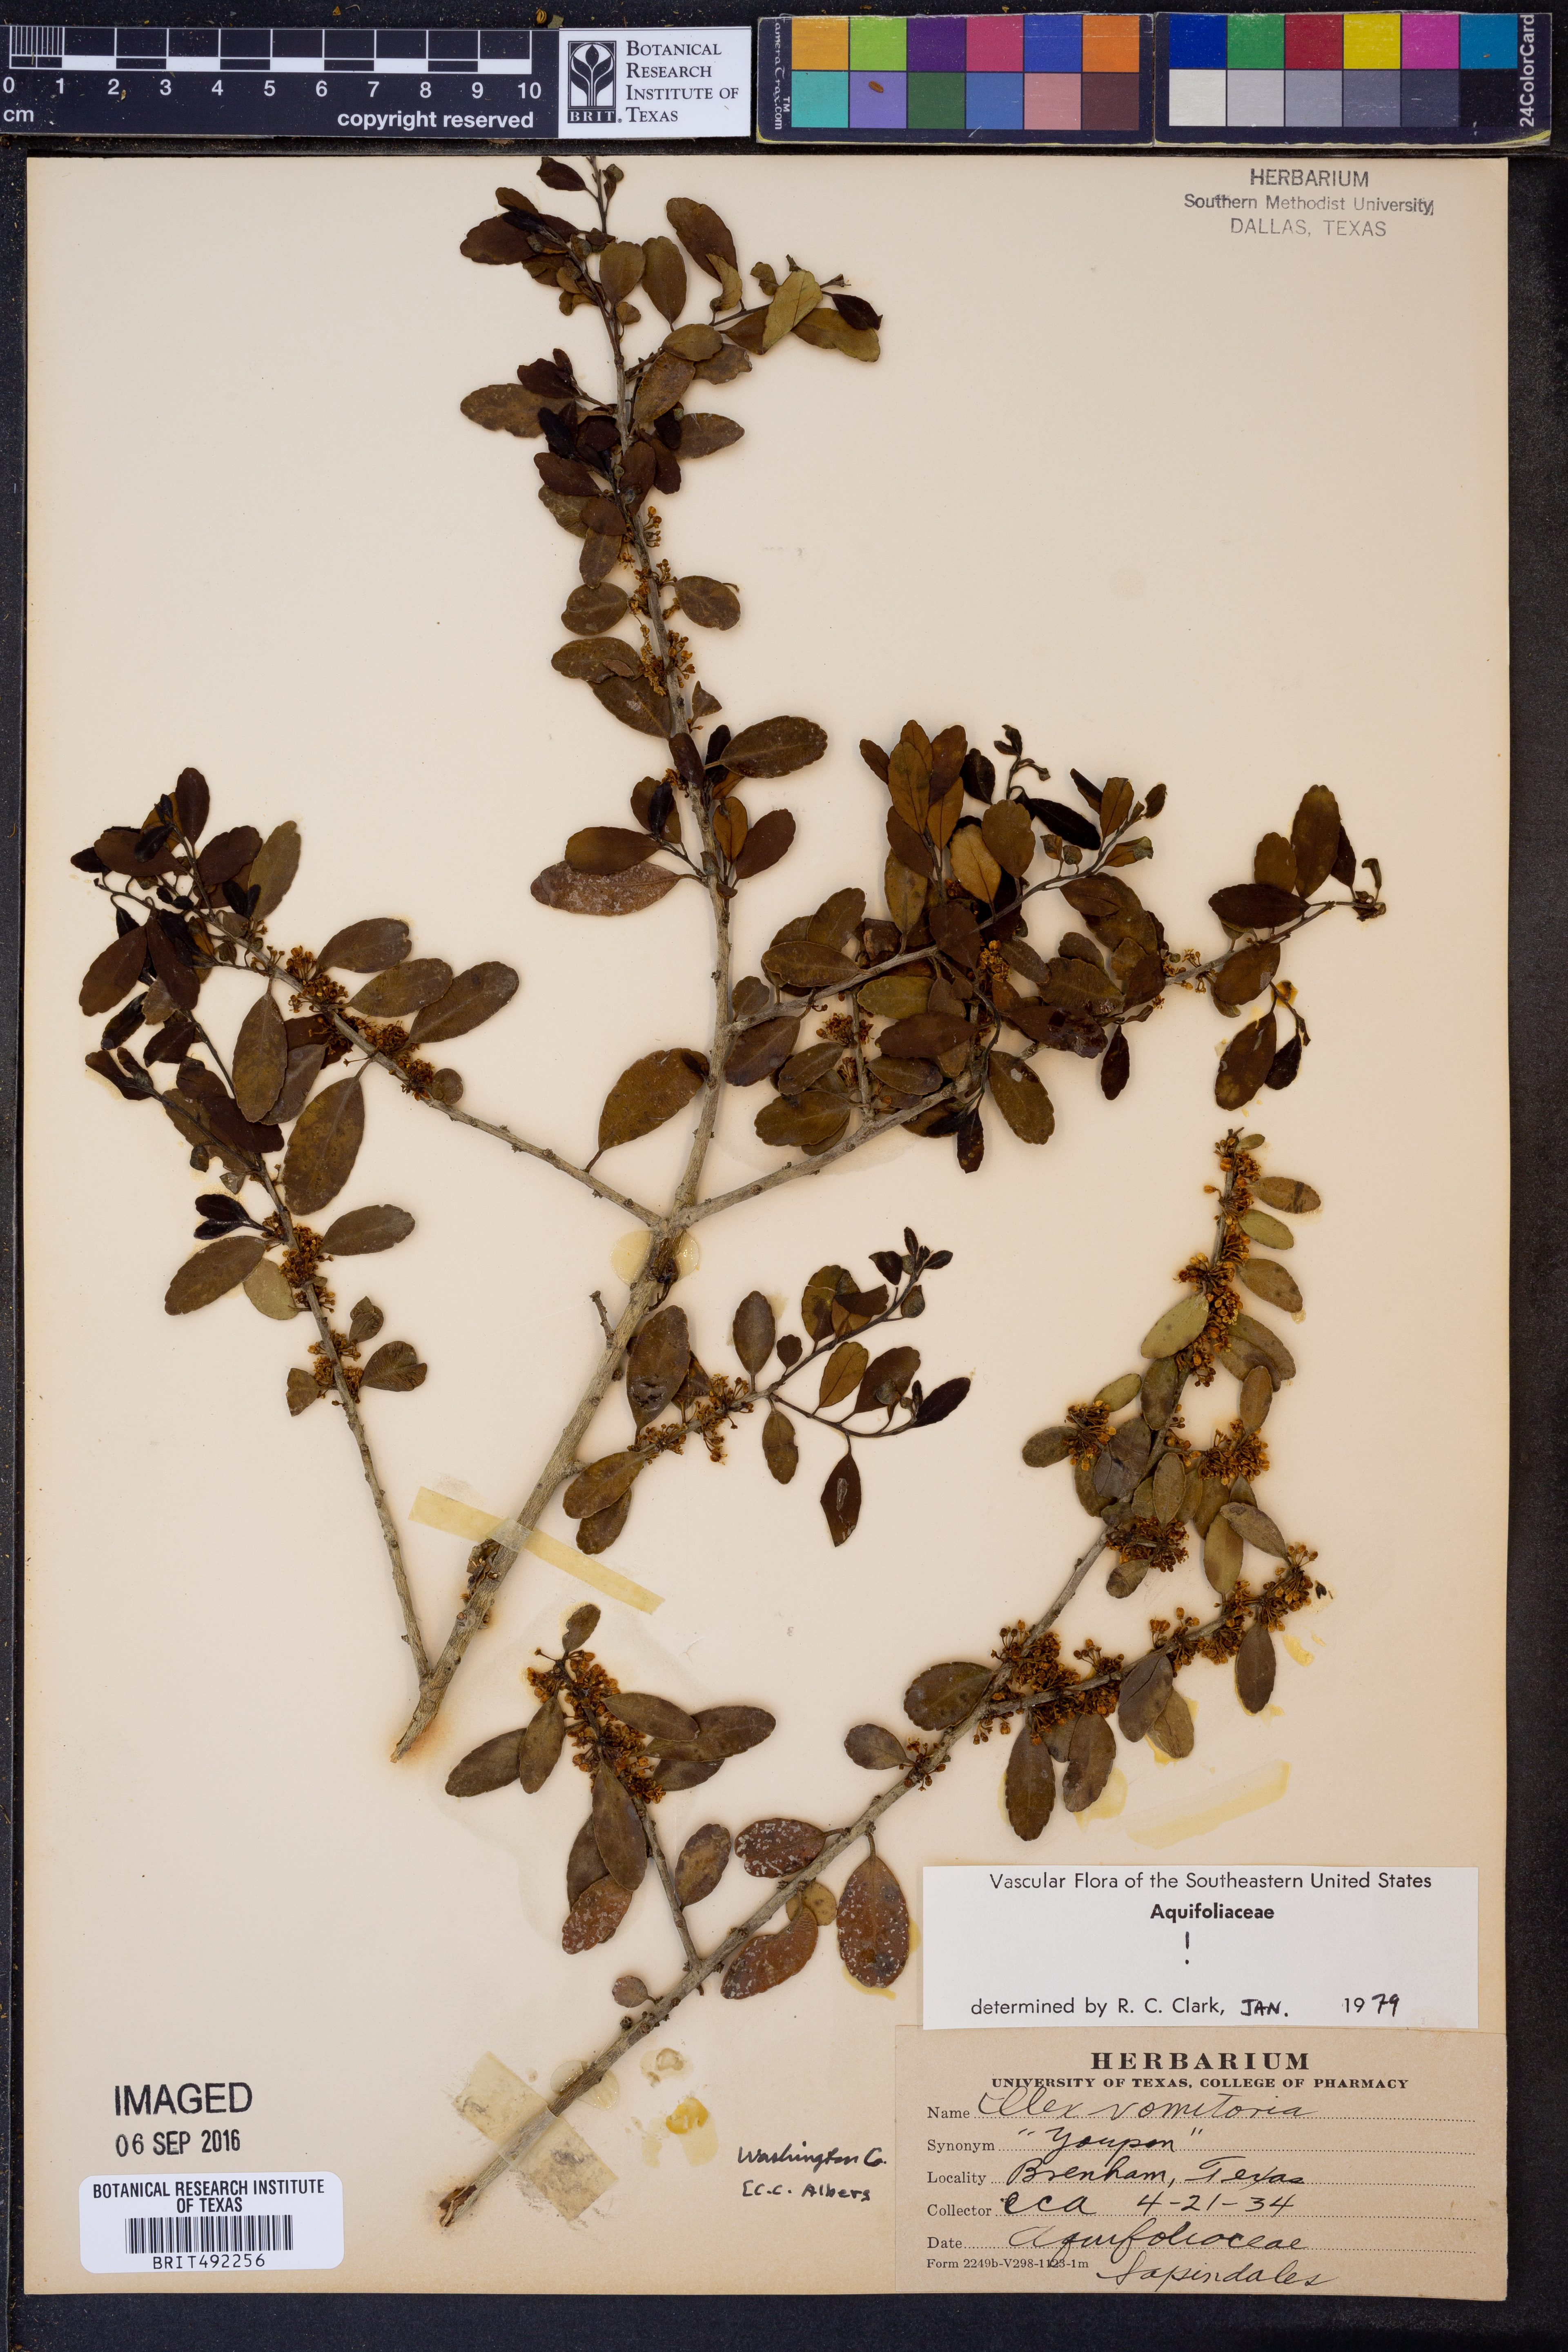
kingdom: Plantae
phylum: Tracheophyta
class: Magnoliopsida
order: Aquifoliales
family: Aquifoliaceae
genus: Ilex
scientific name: Ilex vomitoria
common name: Yaupon holly
